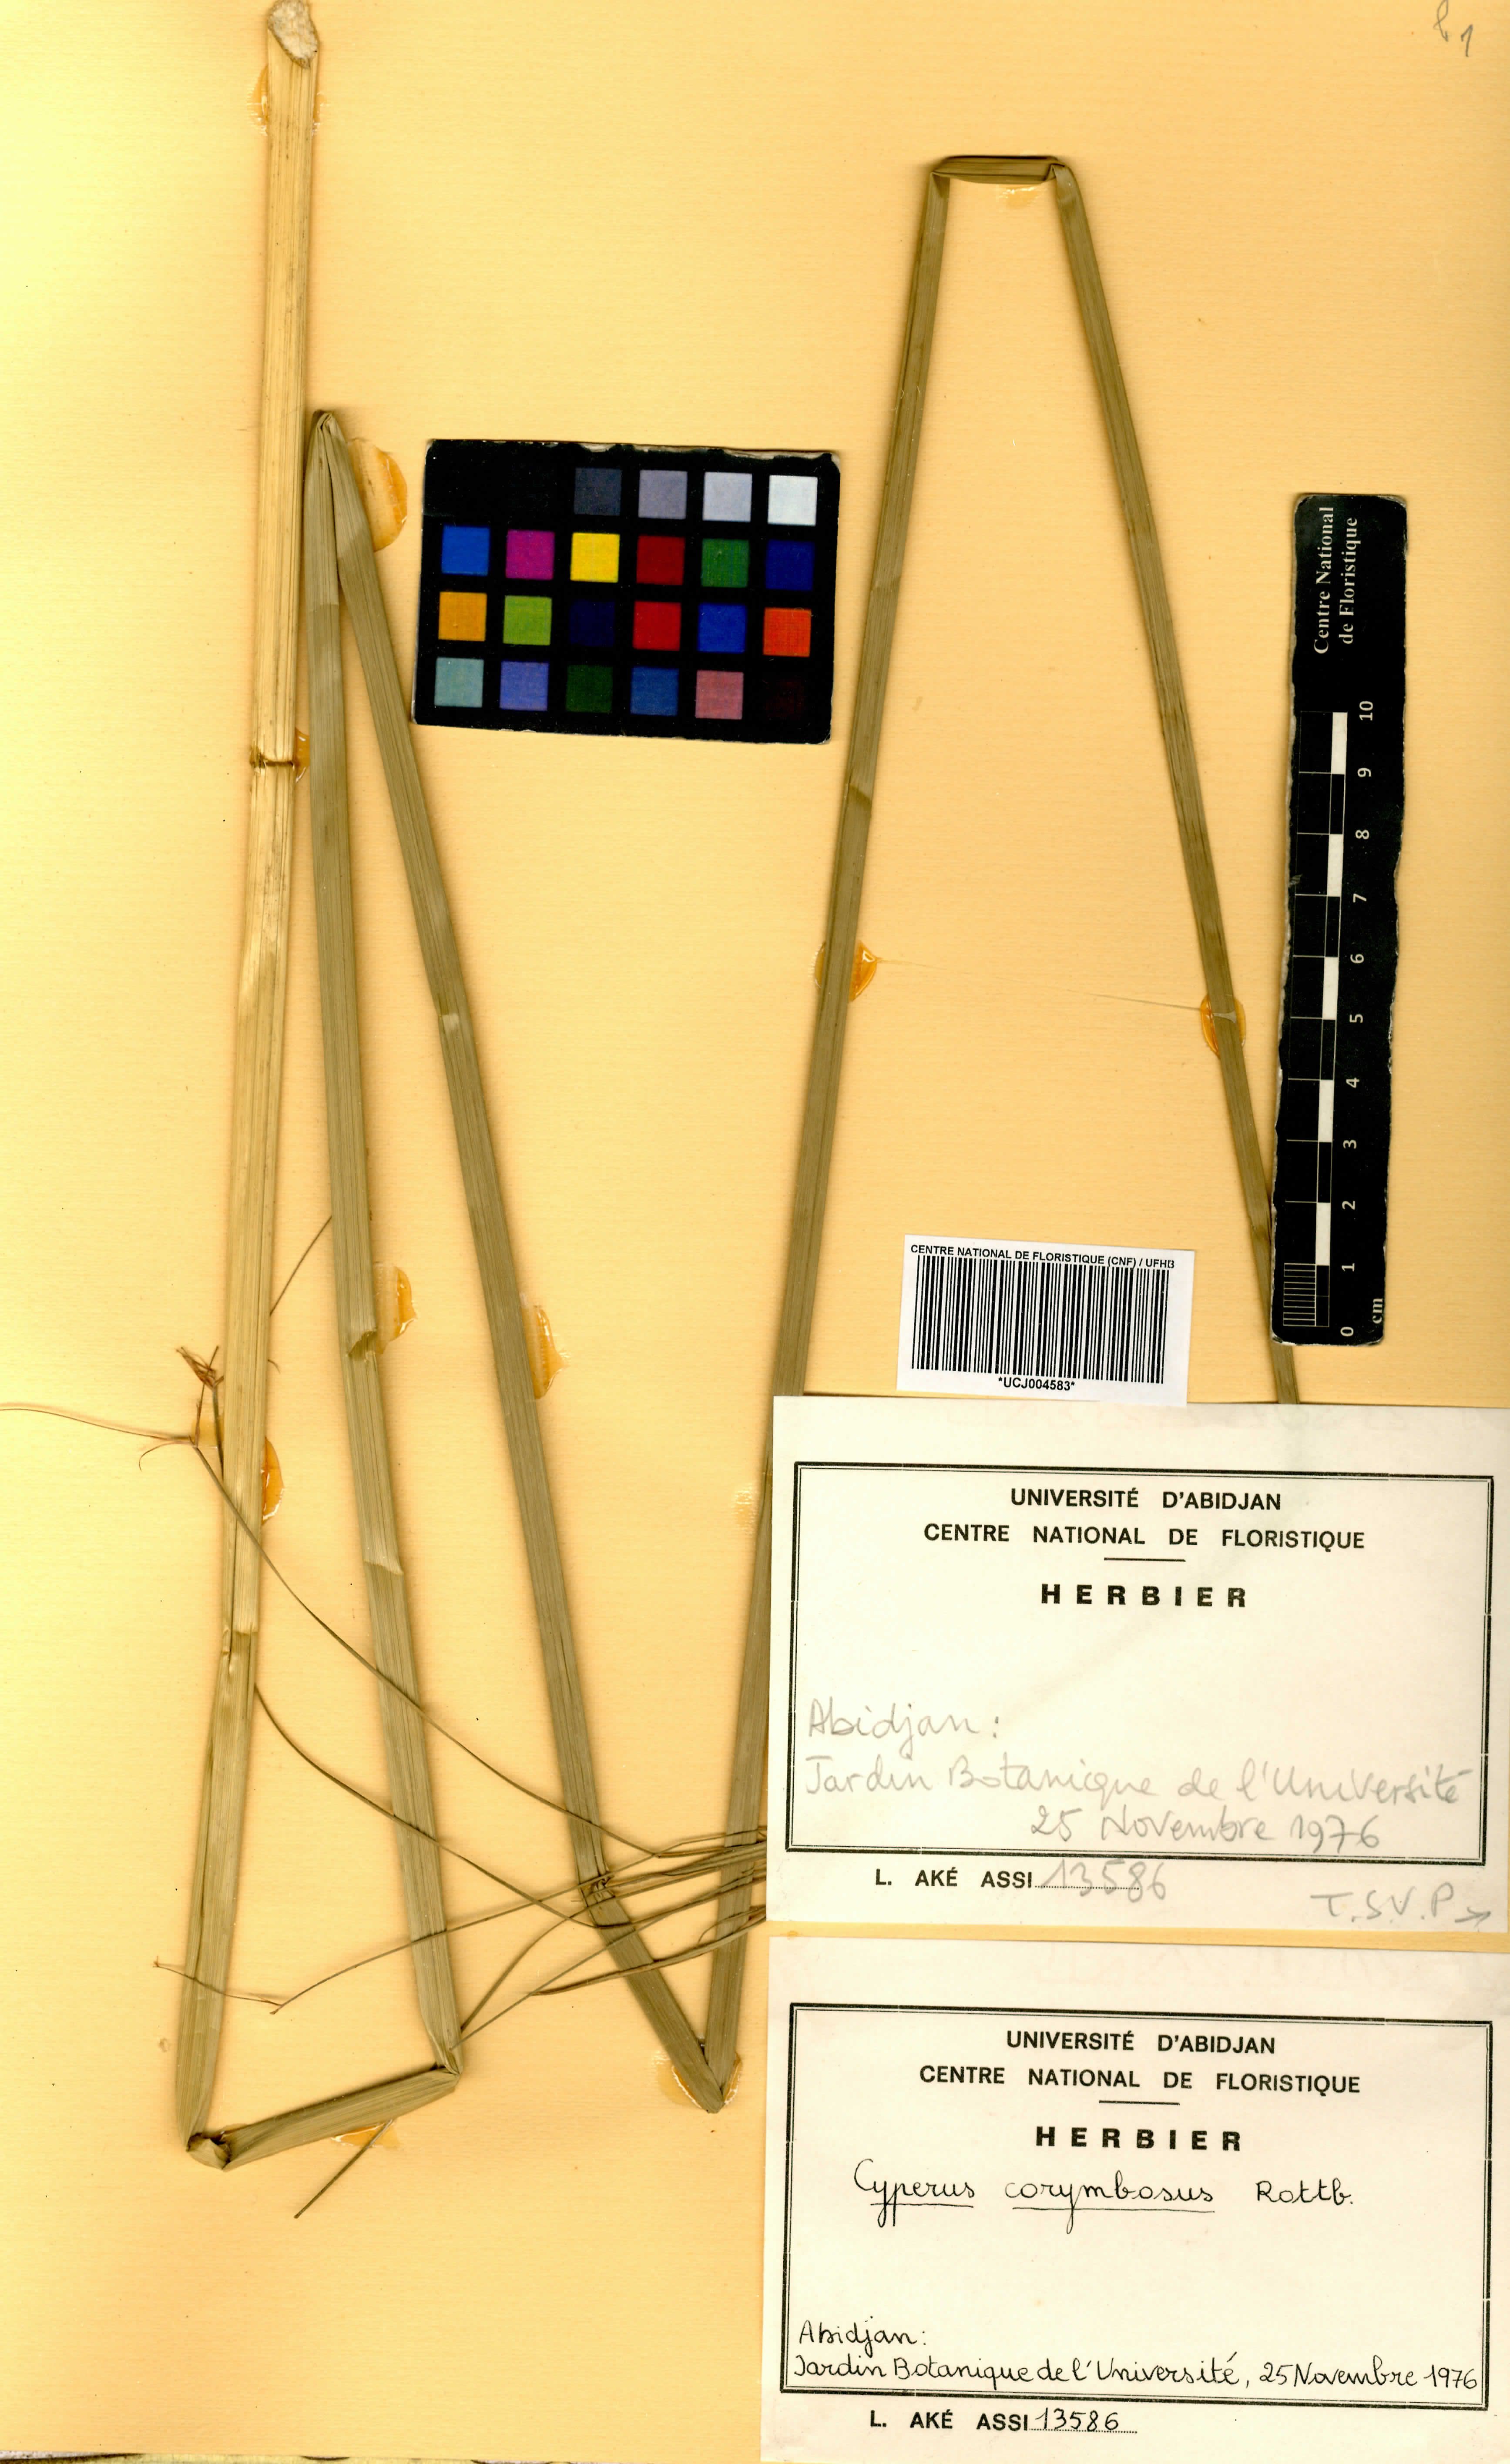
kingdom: Plantae
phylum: Tracheophyta
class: Liliopsida
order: Poales
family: Cyperaceae
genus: Cyperus
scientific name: Cyperus conglomeratus
